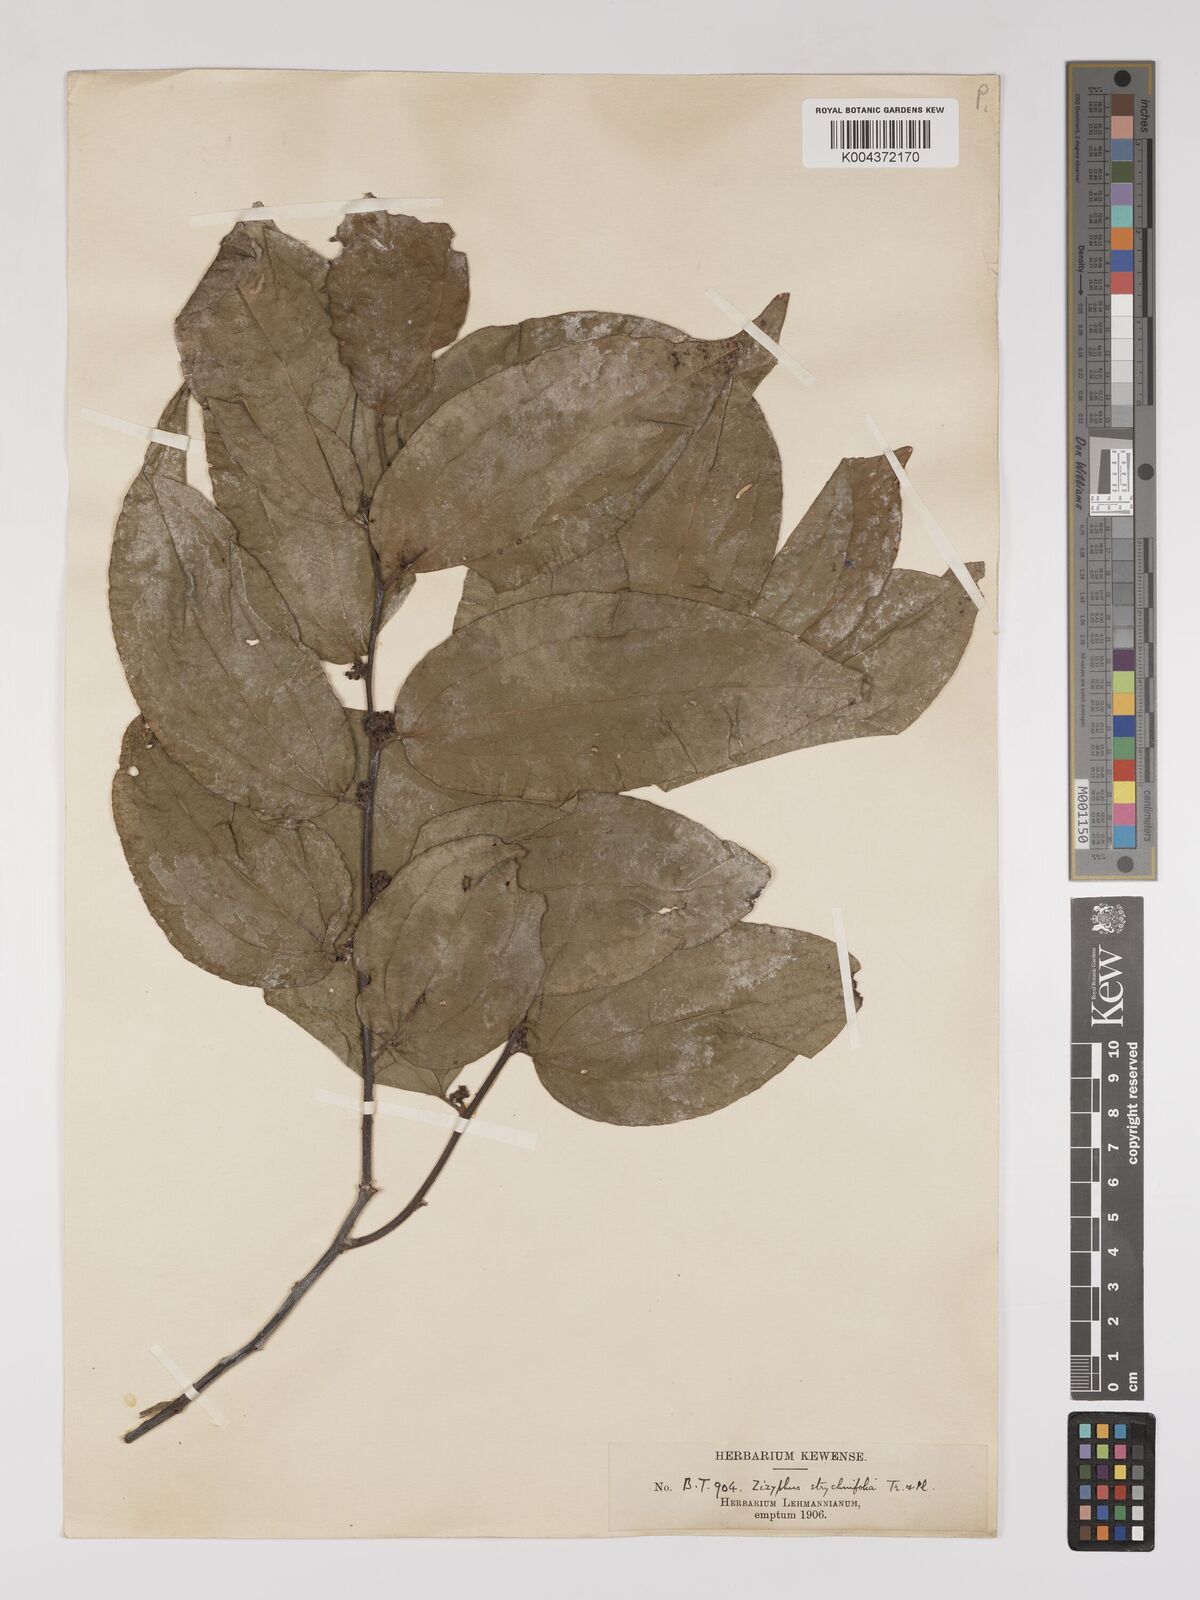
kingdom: Plantae
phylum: Tracheophyta
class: Magnoliopsida
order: Rosales
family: Rhamnaceae
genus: Sarcomphalus
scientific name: Sarcomphalus strychnifolius
